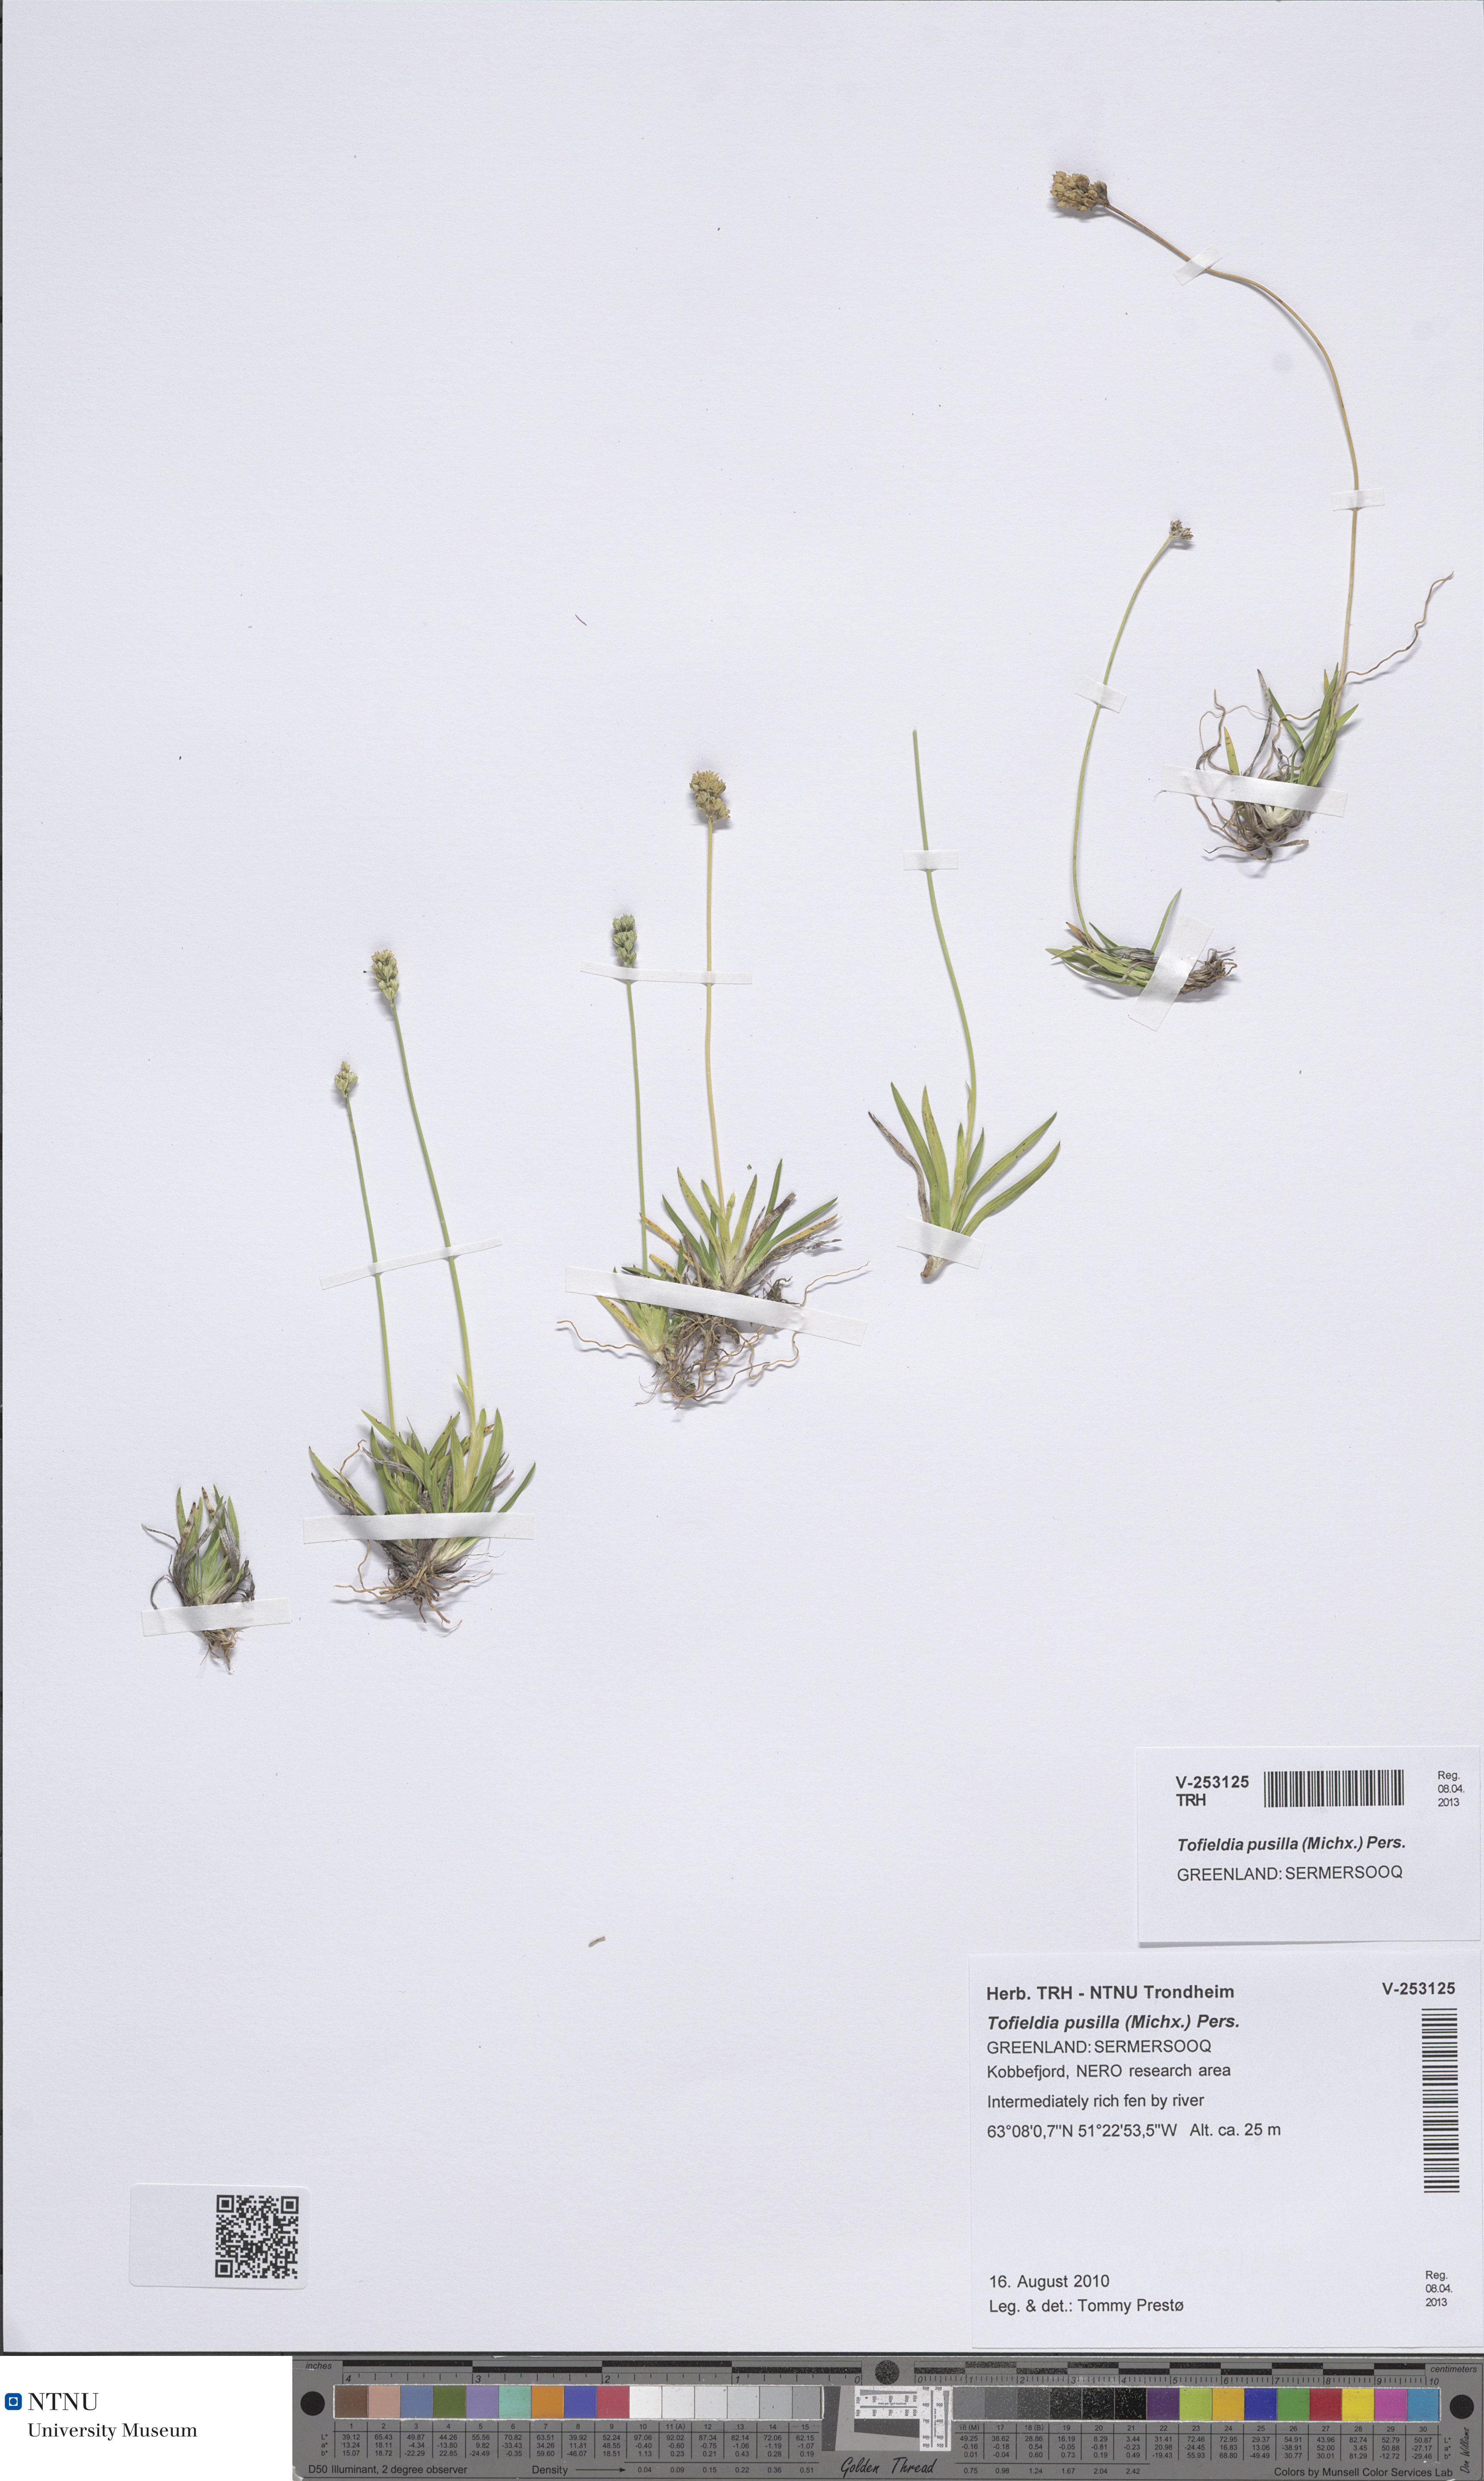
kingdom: Plantae
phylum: Tracheophyta
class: Liliopsida
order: Alismatales
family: Tofieldiaceae
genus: Tofieldia
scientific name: Tofieldia pusilla
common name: Scottish false asphodel
